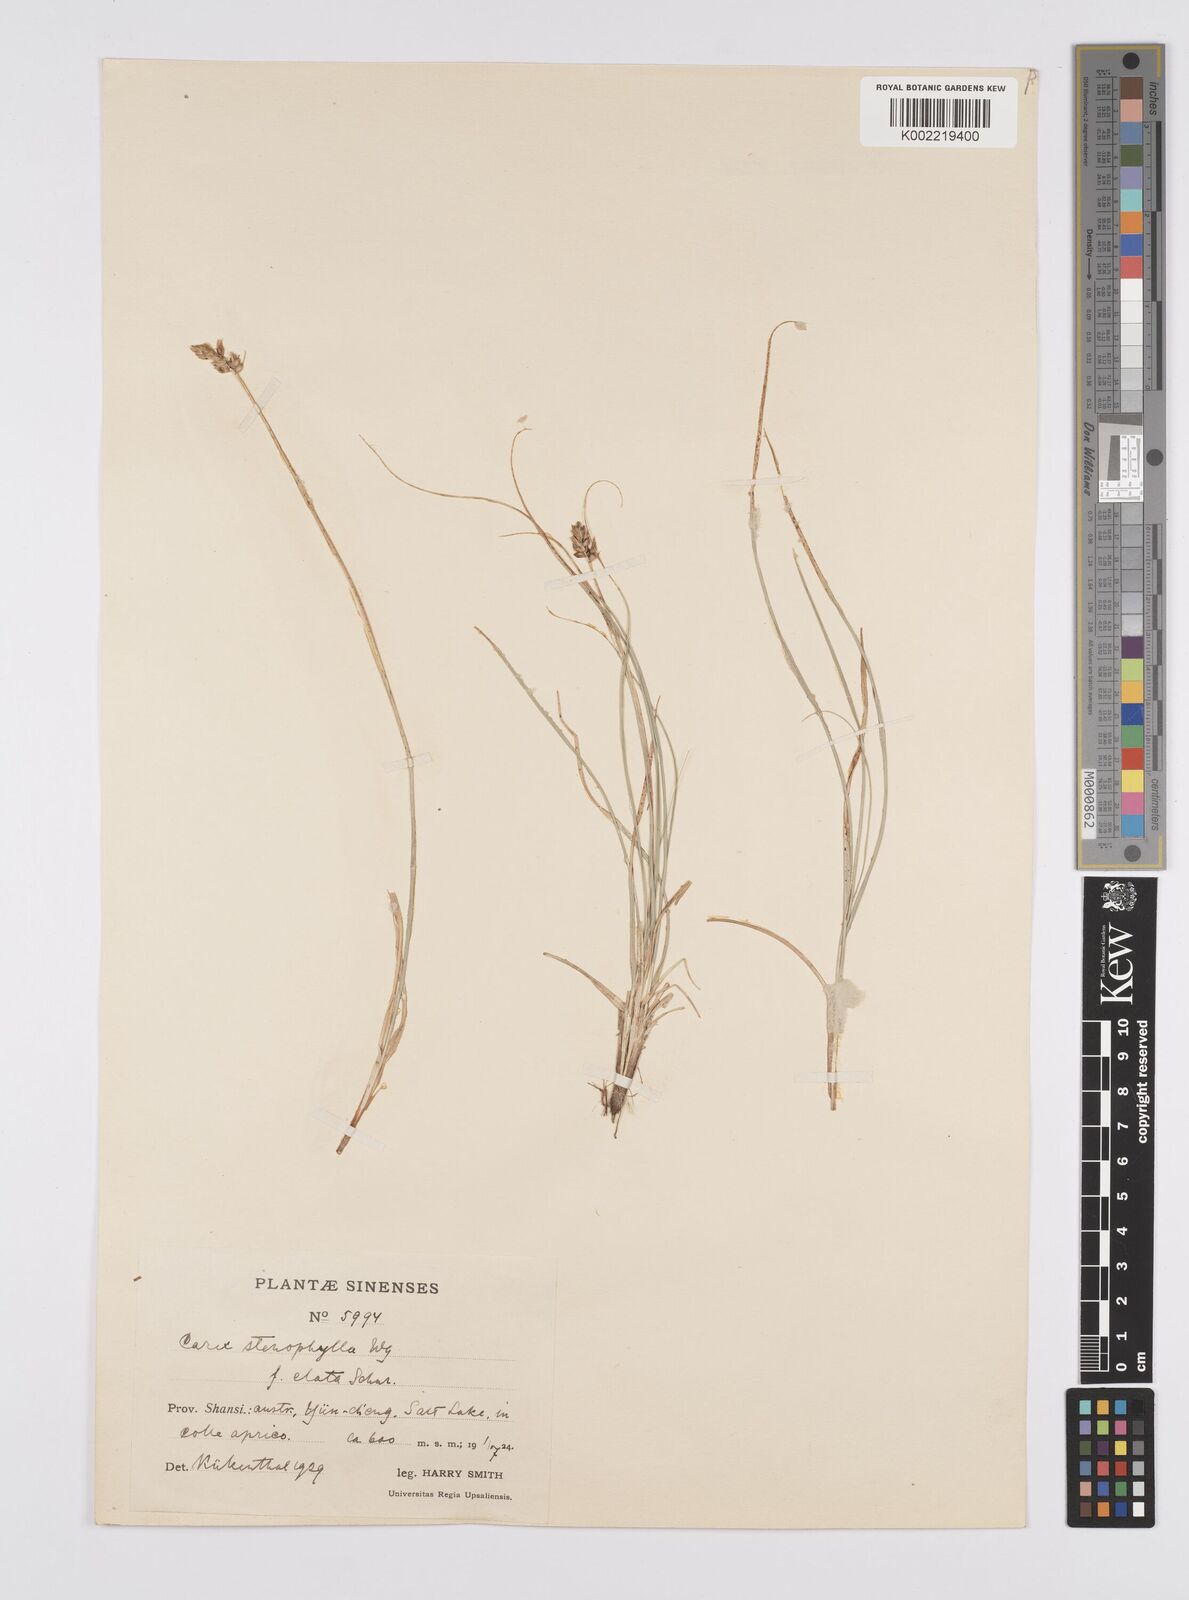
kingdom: Plantae
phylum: Tracheophyta
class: Liliopsida
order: Poales
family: Cyperaceae
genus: Carex
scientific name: Carex stenophylla
